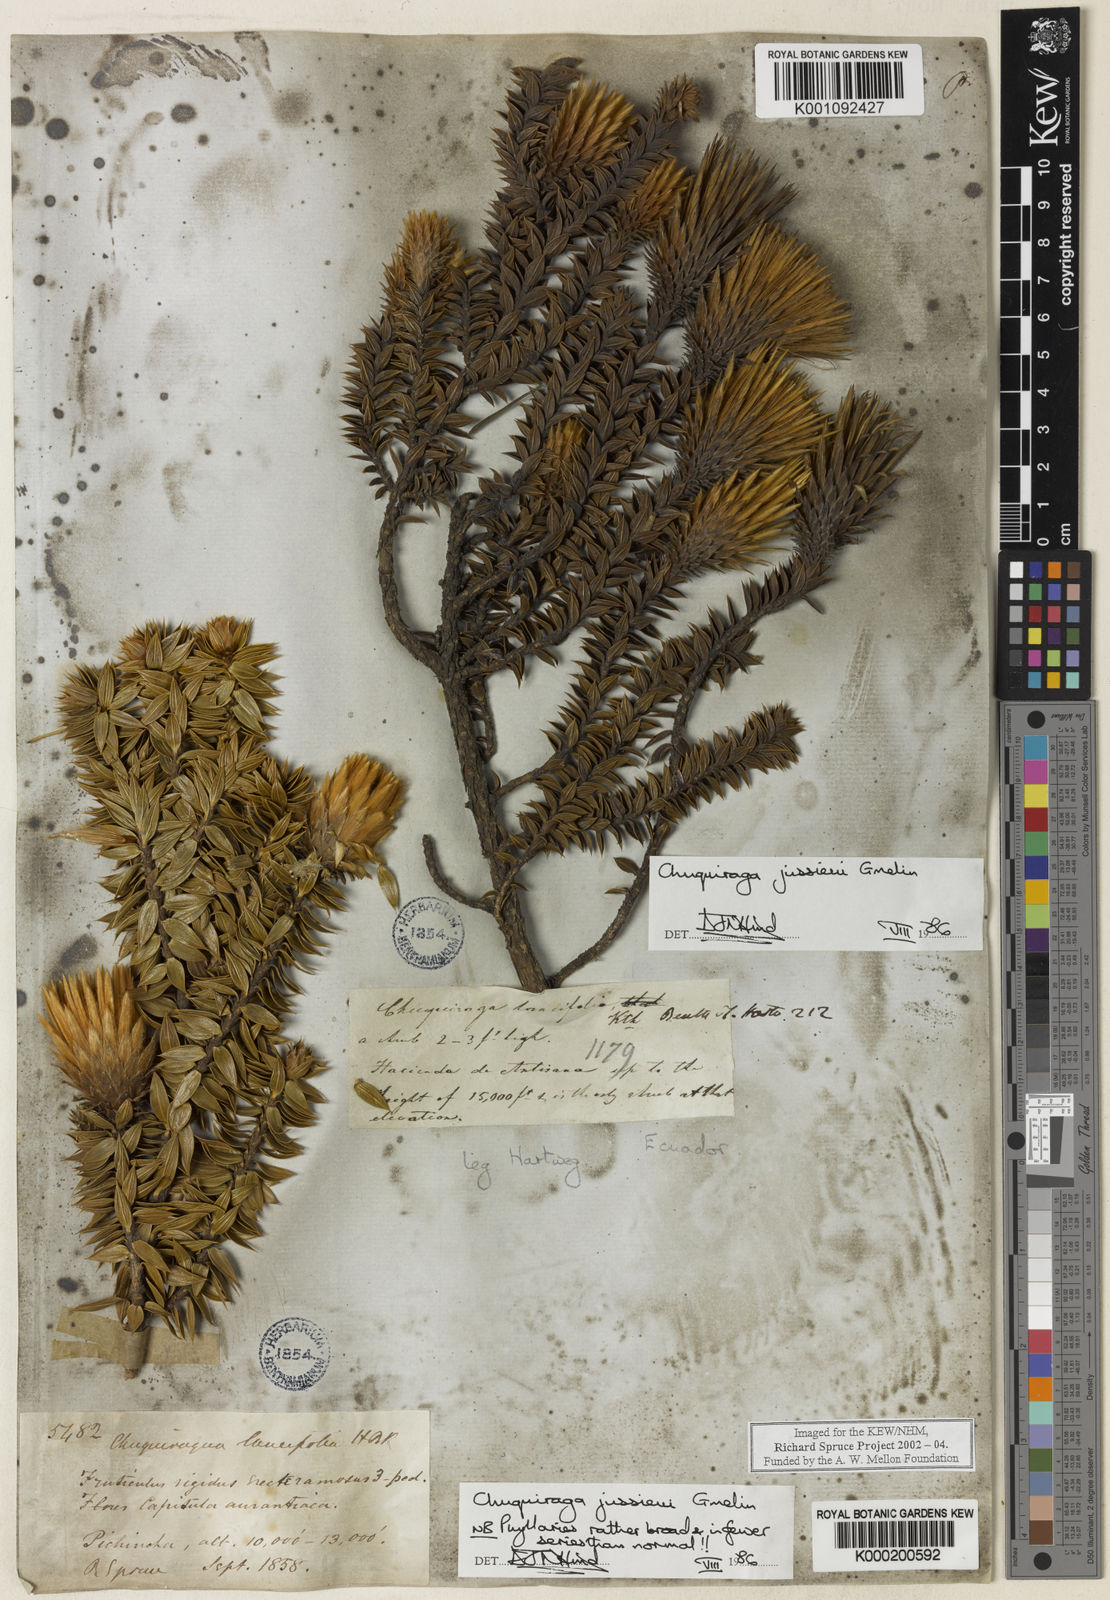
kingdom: Plantae
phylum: Tracheophyta
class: Magnoliopsida
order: Asterales
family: Asteraceae
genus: Chuquiraga
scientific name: Chuquiraga jussieui
